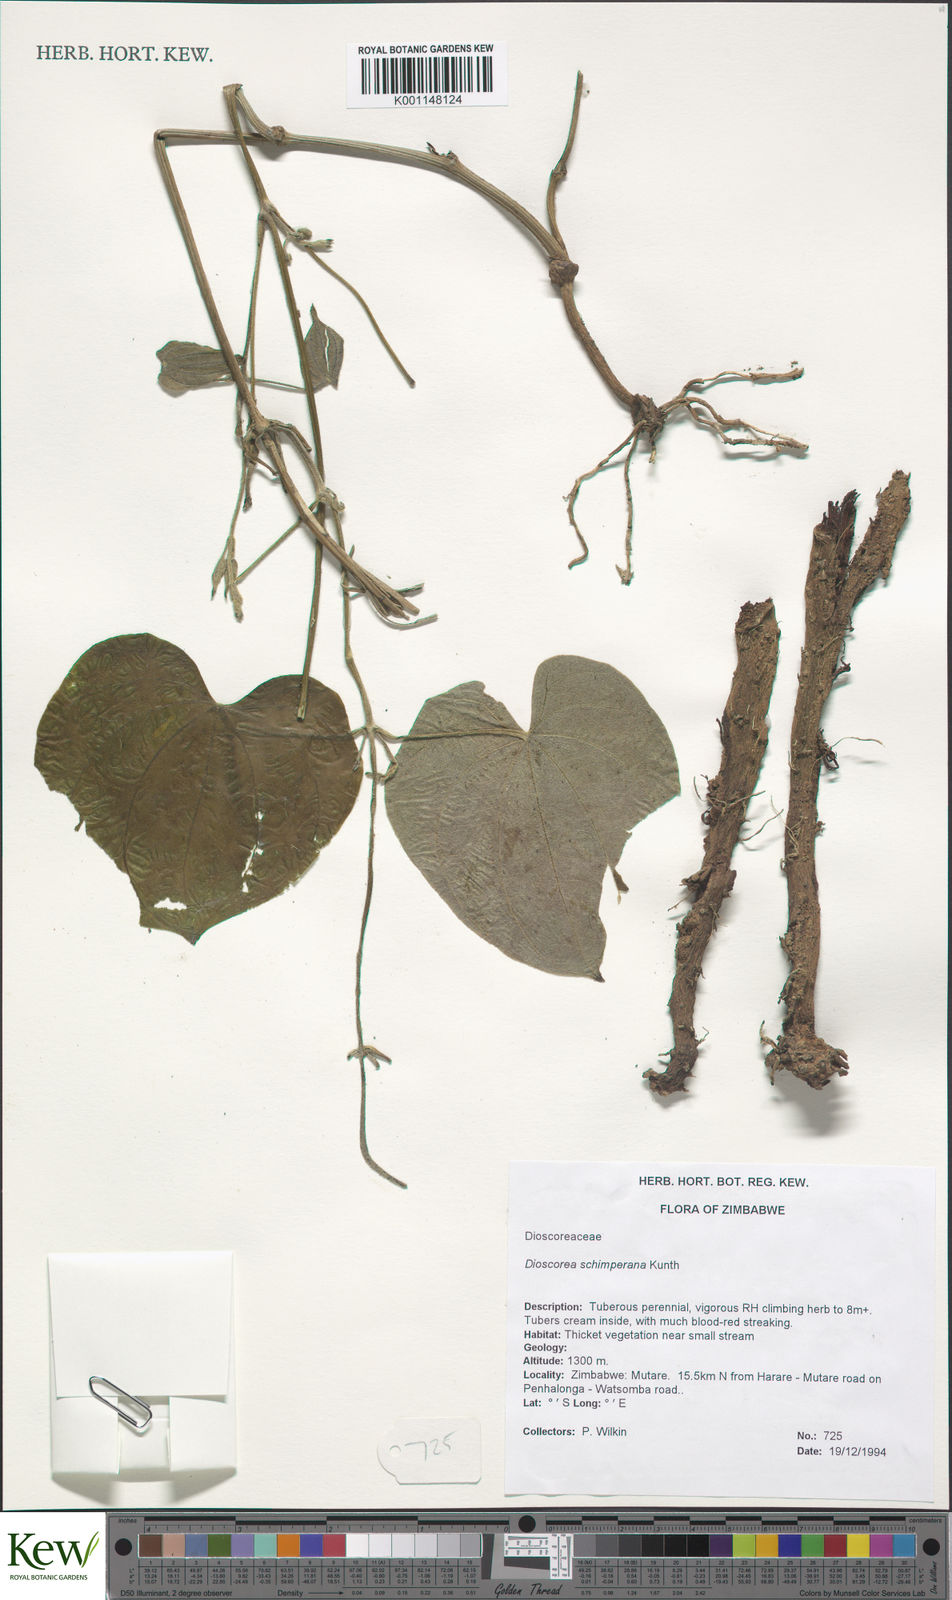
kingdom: Plantae
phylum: Tracheophyta
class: Liliopsida
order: Dioscoreales
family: Dioscoreaceae
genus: Dioscorea
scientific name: Dioscorea schimperiana
